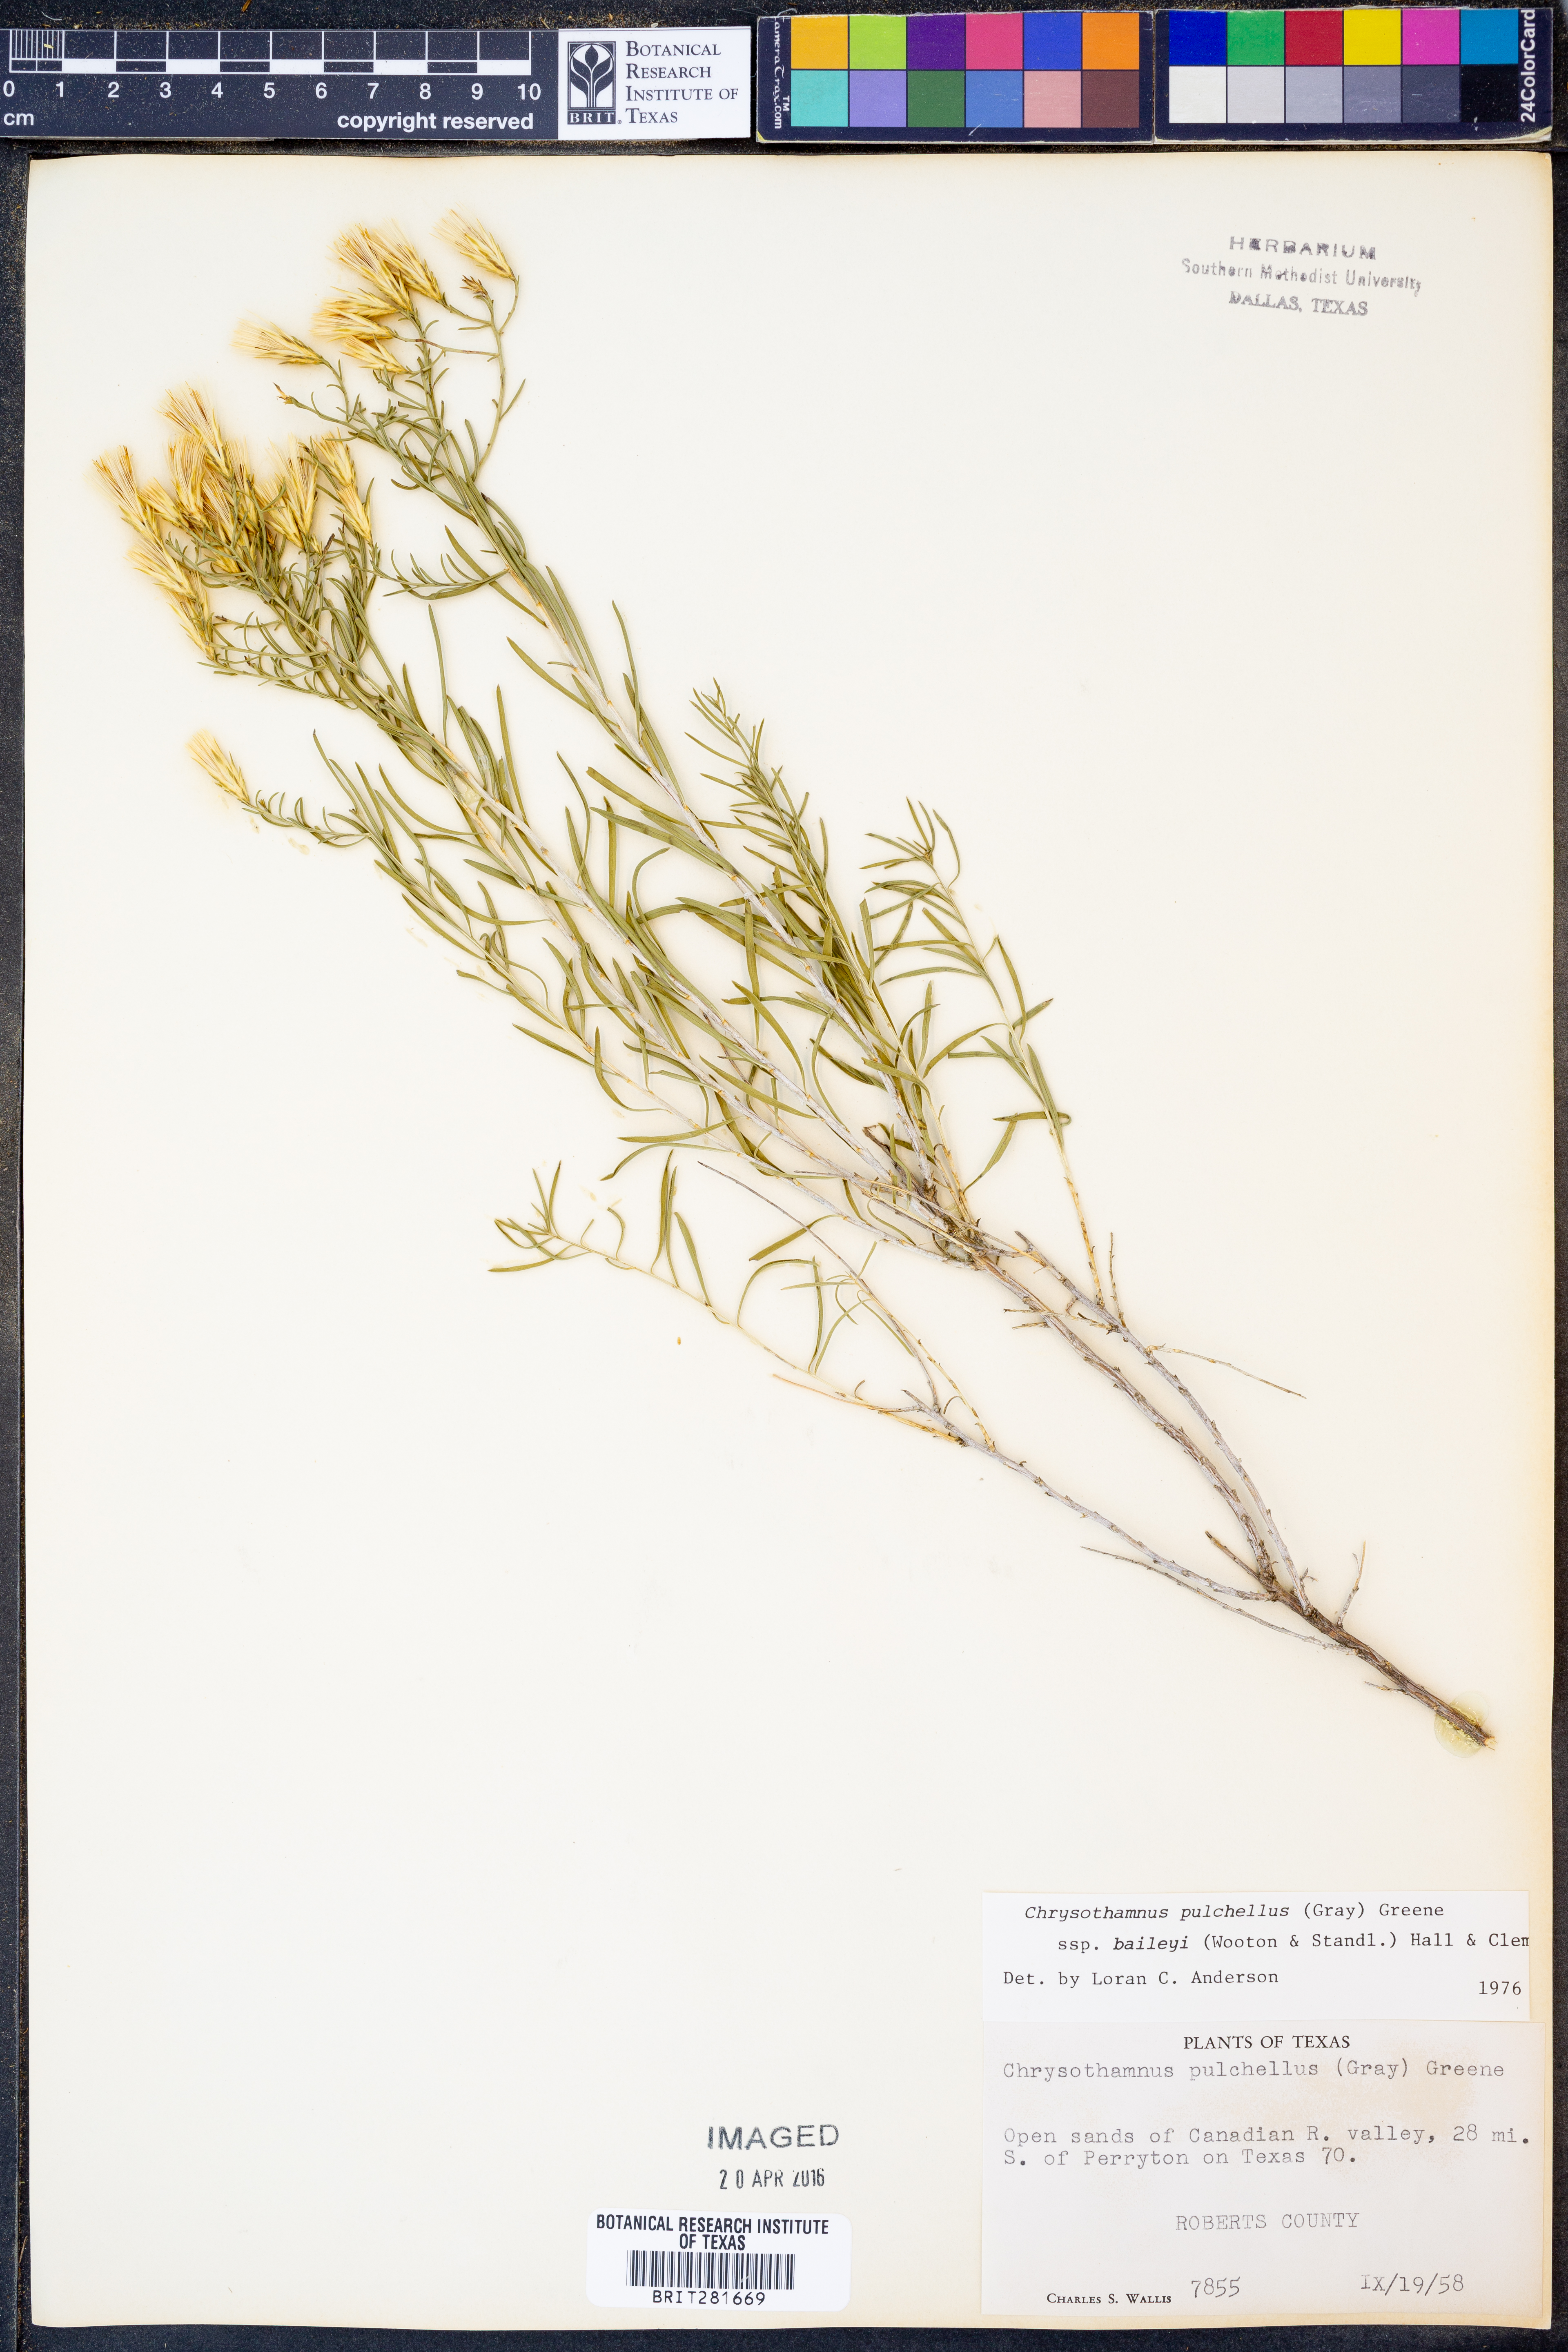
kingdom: Plantae
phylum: Tracheophyta
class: Magnoliopsida
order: Asterales
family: Asteraceae
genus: Lorandersonia
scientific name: Lorandersonia baileyi
